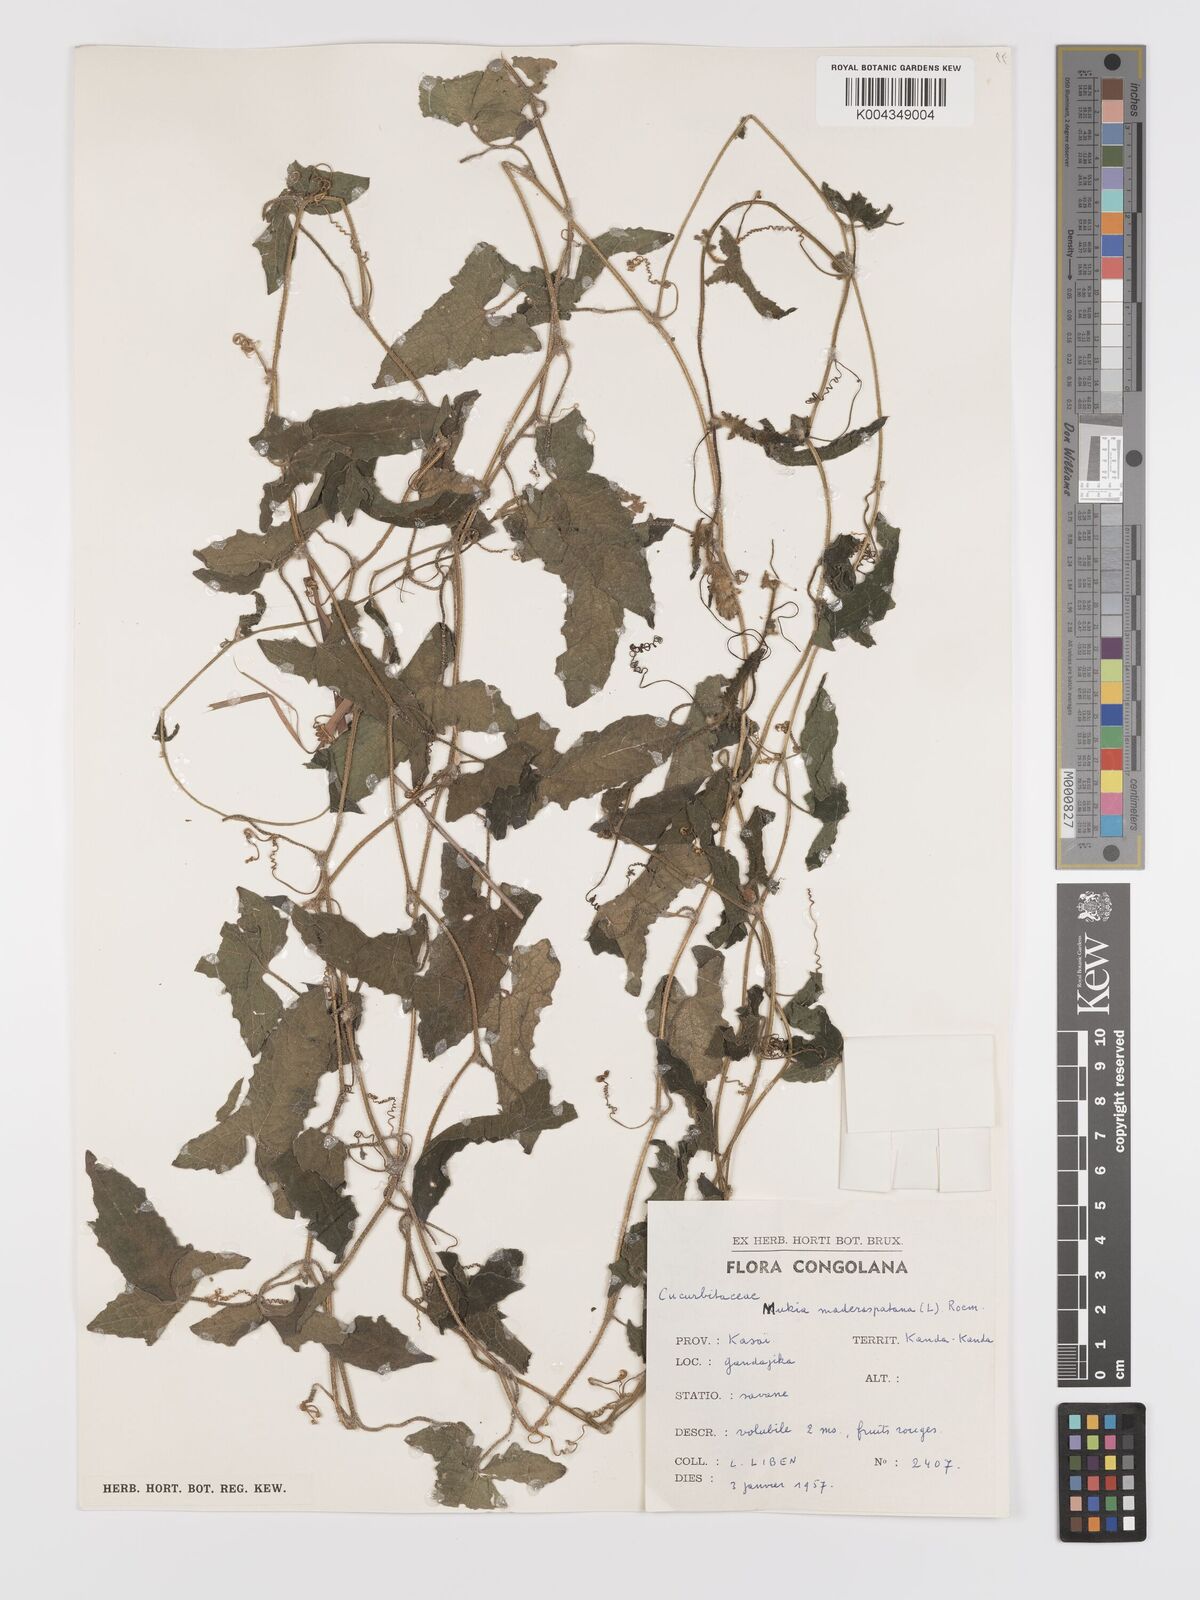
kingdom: Plantae
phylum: Tracheophyta
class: Magnoliopsida
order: Cucurbitales
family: Cucurbitaceae
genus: Cucumis
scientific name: Cucumis maderaspatanus
